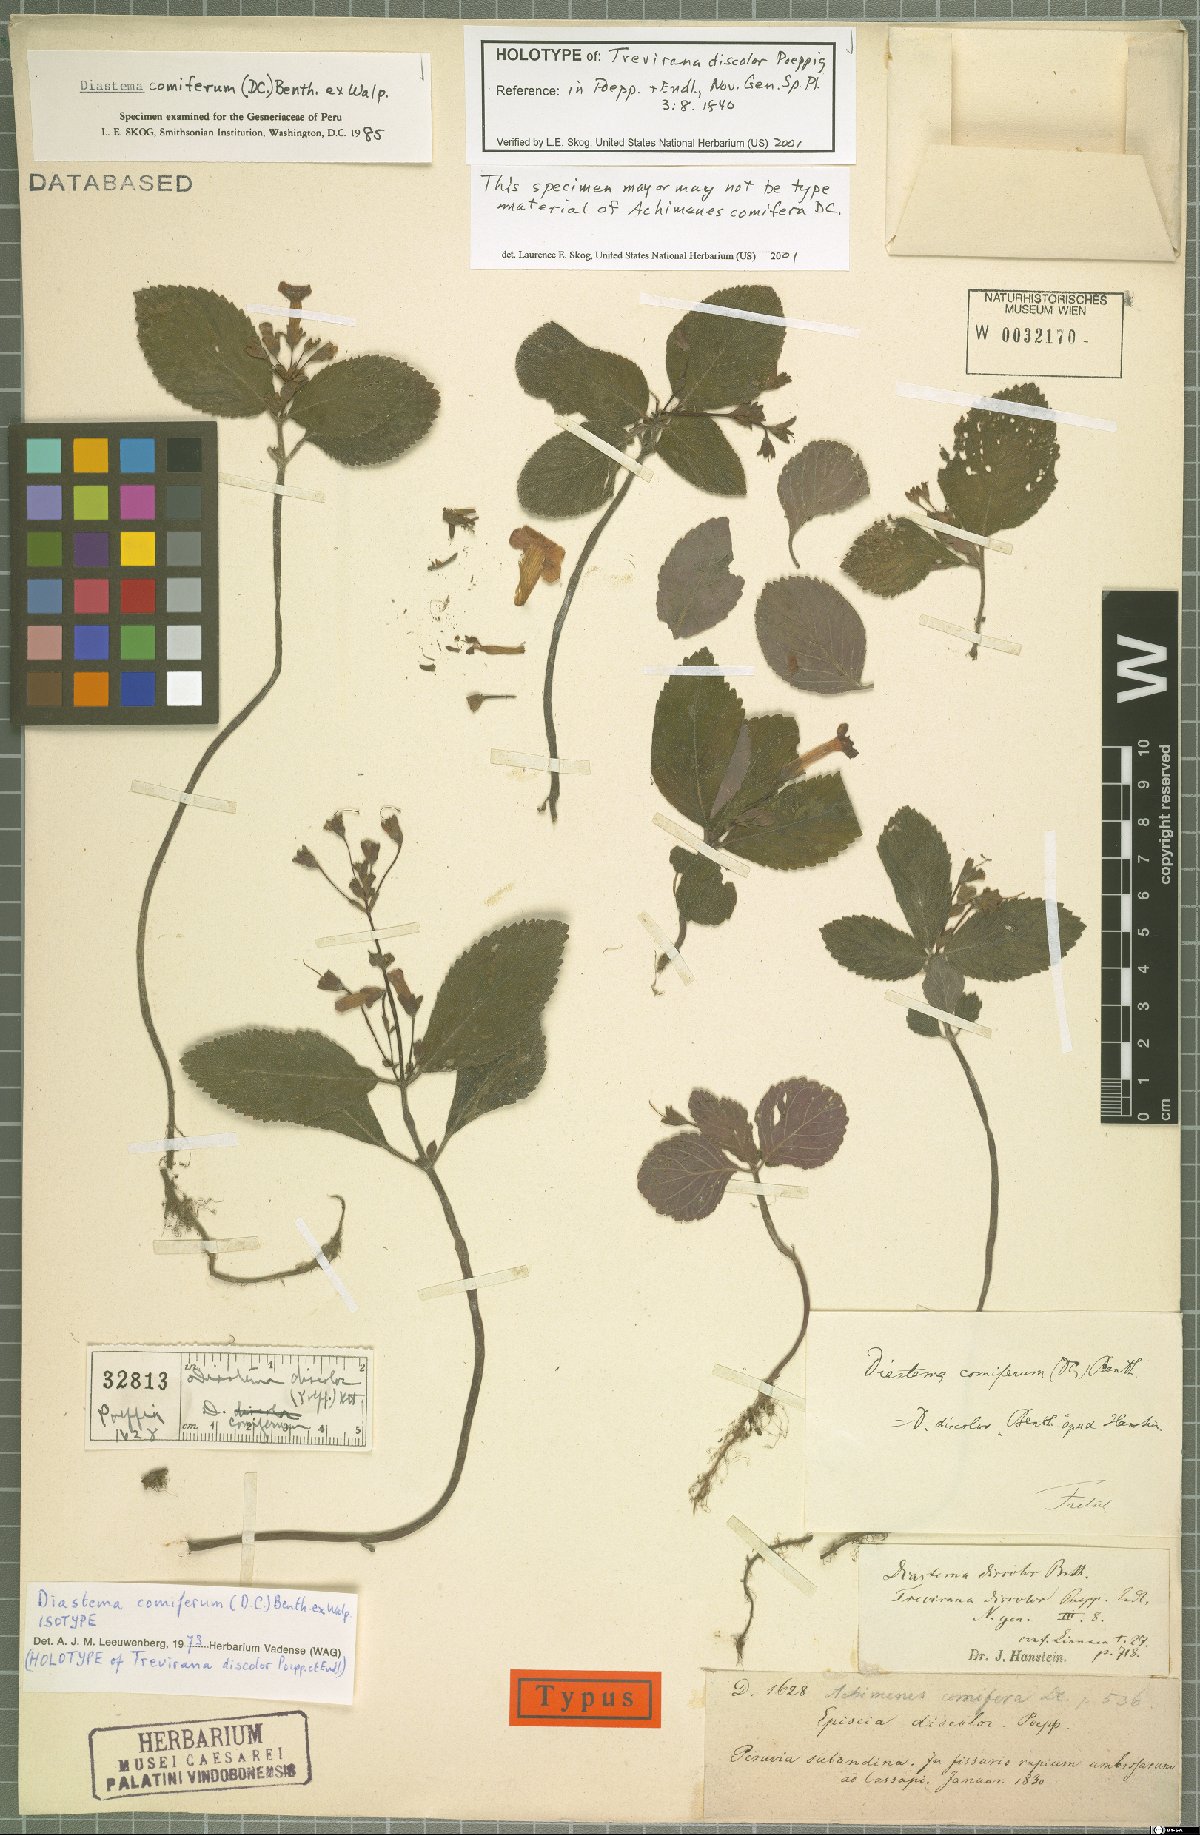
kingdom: Plantae
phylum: Tracheophyta
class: Magnoliopsida
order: Lamiales
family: Gesneriaceae
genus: Diastema
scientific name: Diastema comiferum
